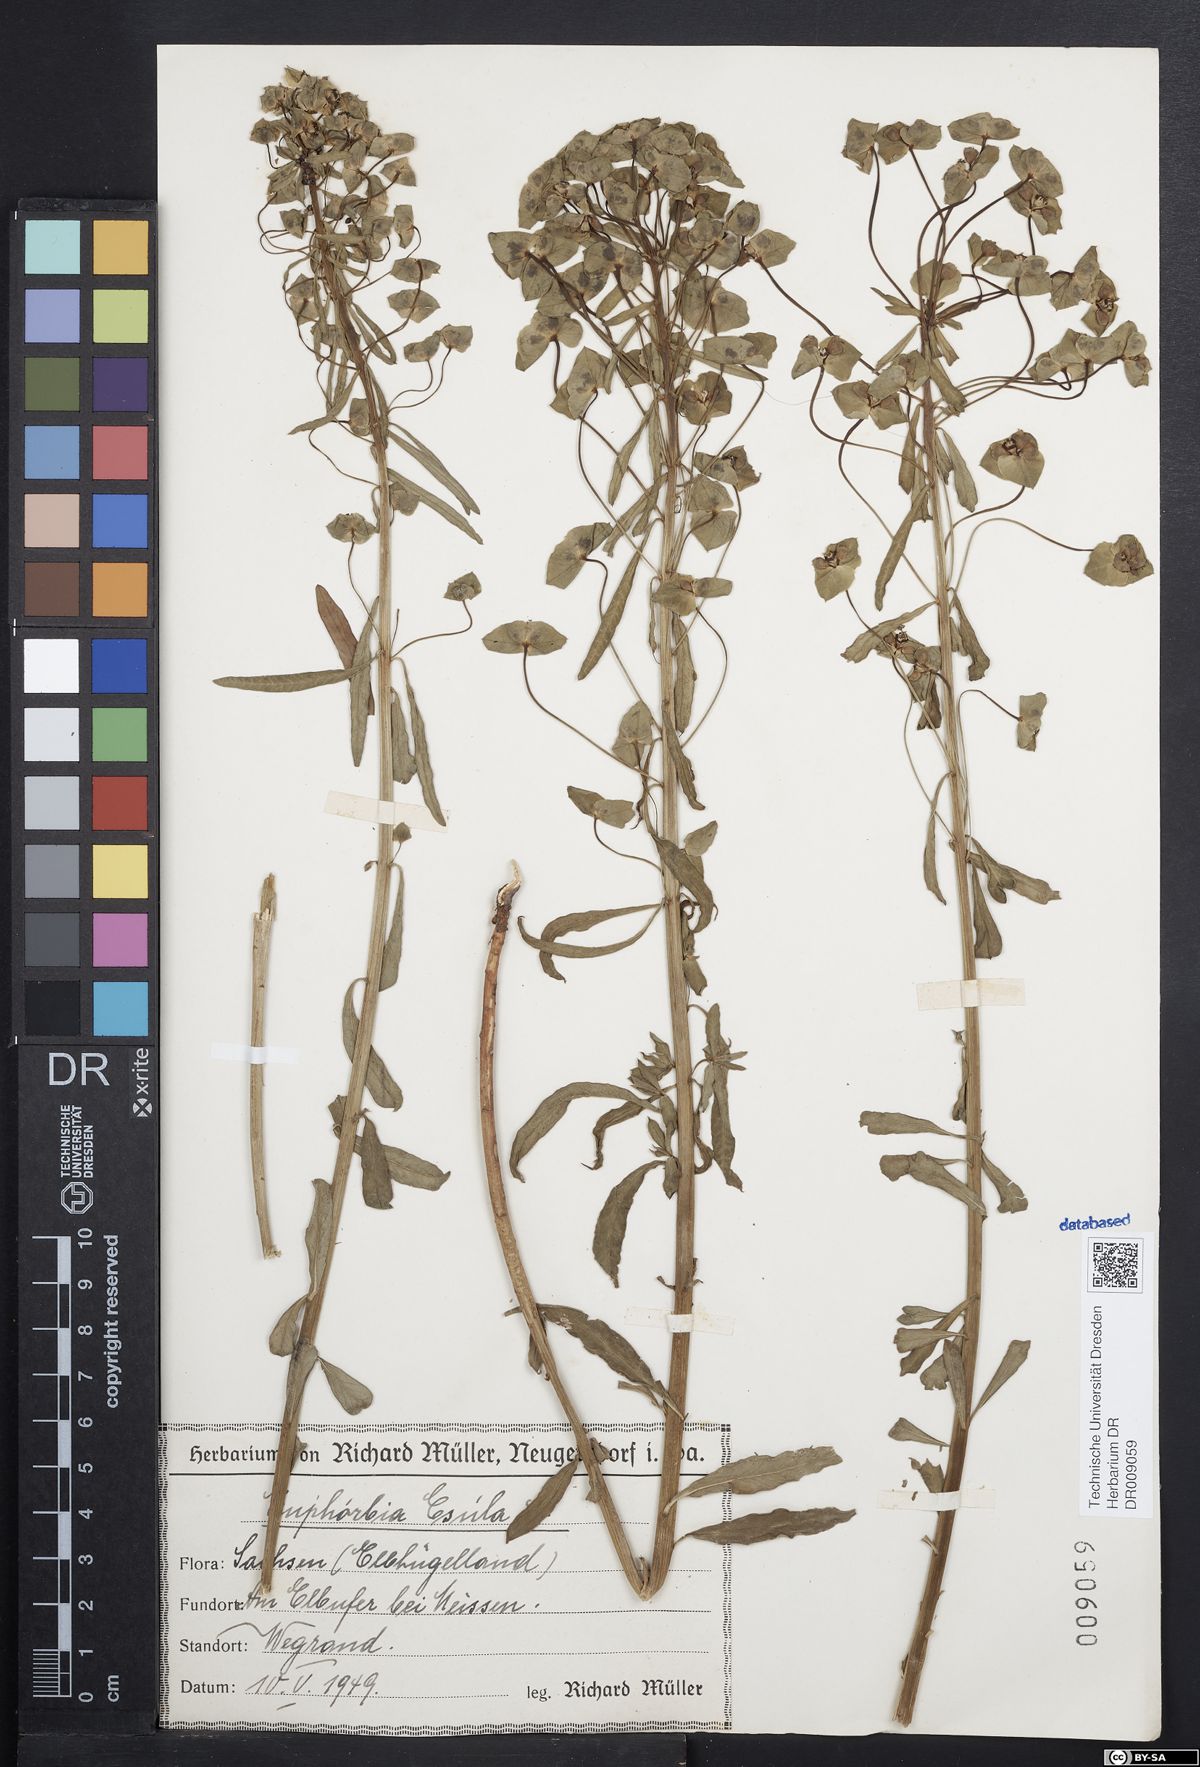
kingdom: Plantae
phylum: Tracheophyta
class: Magnoliopsida
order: Malpighiales
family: Euphorbiaceae
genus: Euphorbia
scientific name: Euphorbia esula
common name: Leafy spurge
